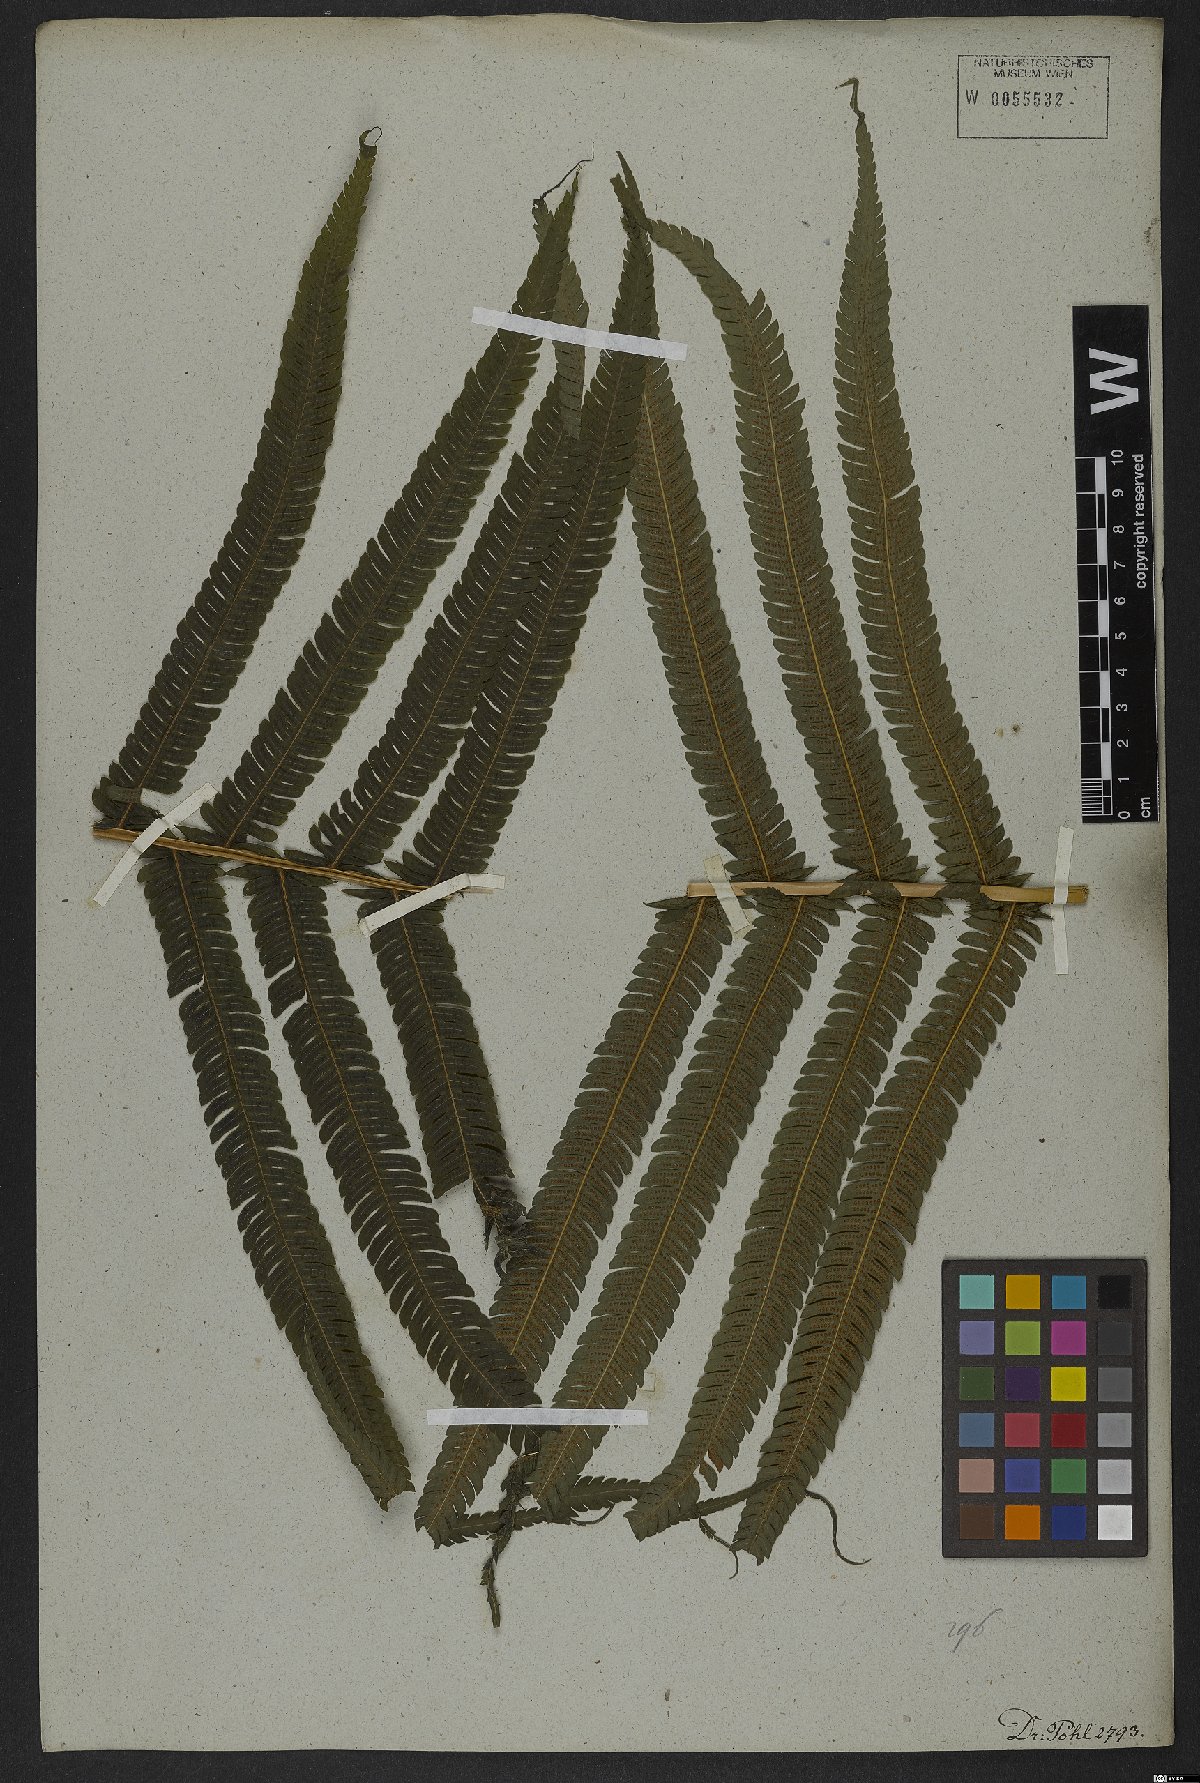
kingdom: Plantae
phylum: Tracheophyta
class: Polypodiopsida
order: Polypodiales
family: Thelypteridaceae
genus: Pelazoneuron
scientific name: Pelazoneuron patens
